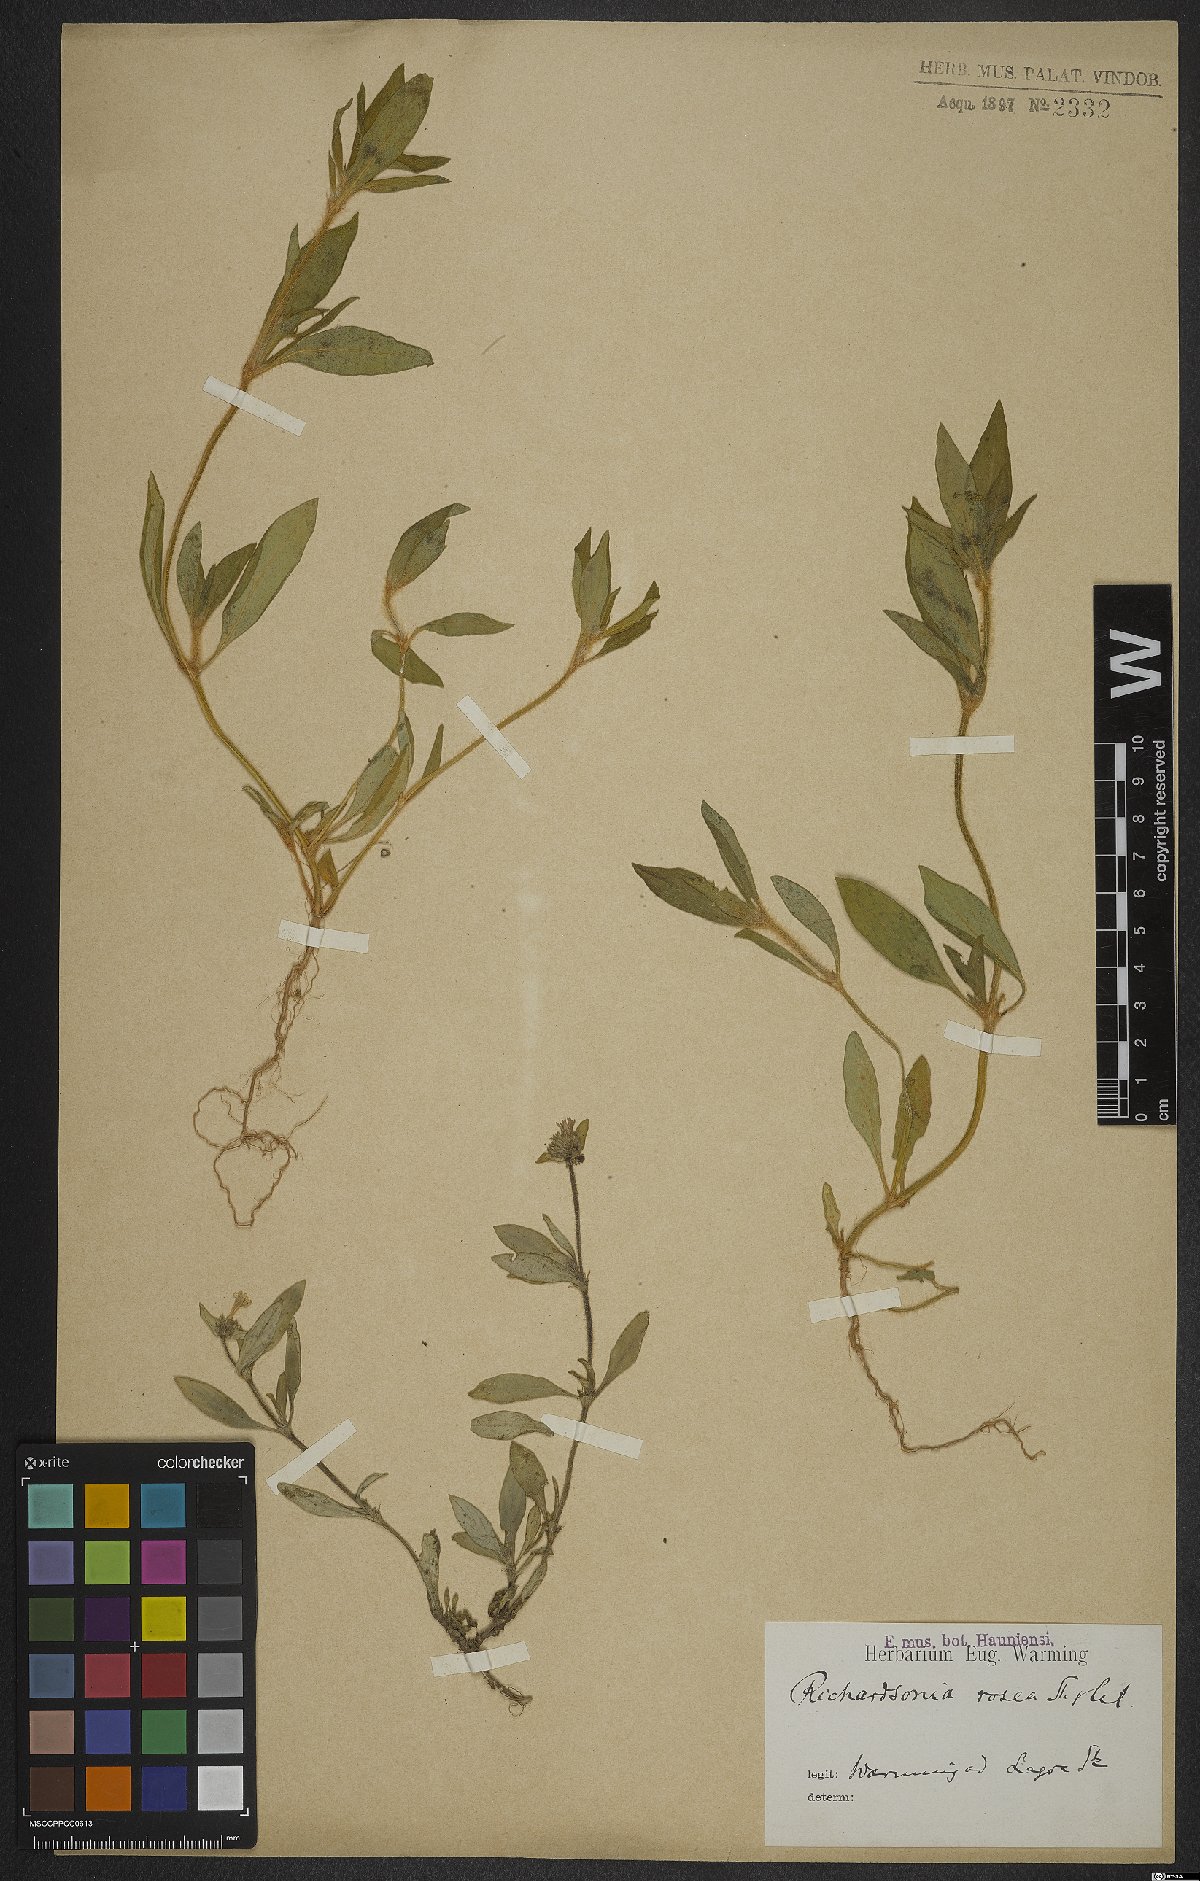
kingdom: Plantae
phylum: Tracheophyta
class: Magnoliopsida
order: Gentianales
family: Rubiaceae
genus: Richardia
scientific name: Richardia brasiliensis
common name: Tropical mexican clover
